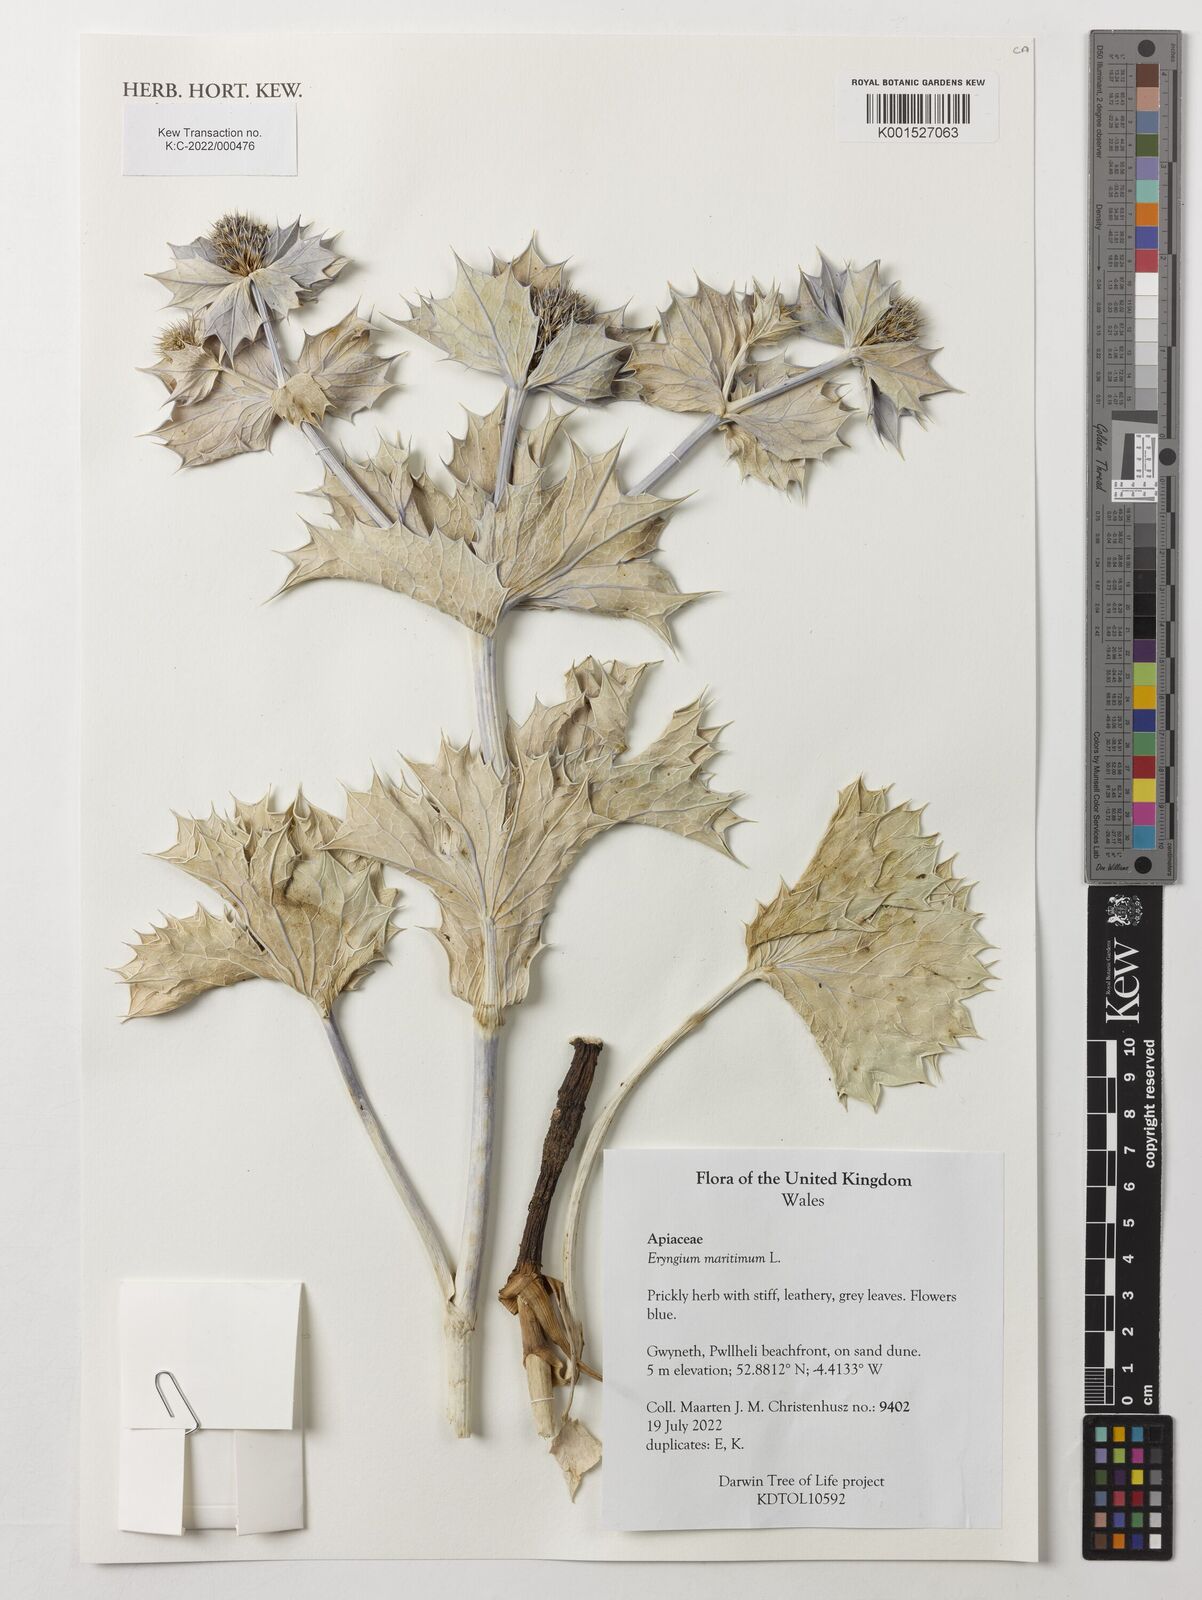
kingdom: Plantae
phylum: Tracheophyta
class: Magnoliopsida
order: Apiales
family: Apiaceae
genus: Eryngium
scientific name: Eryngium maritimum
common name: Sea-holly
